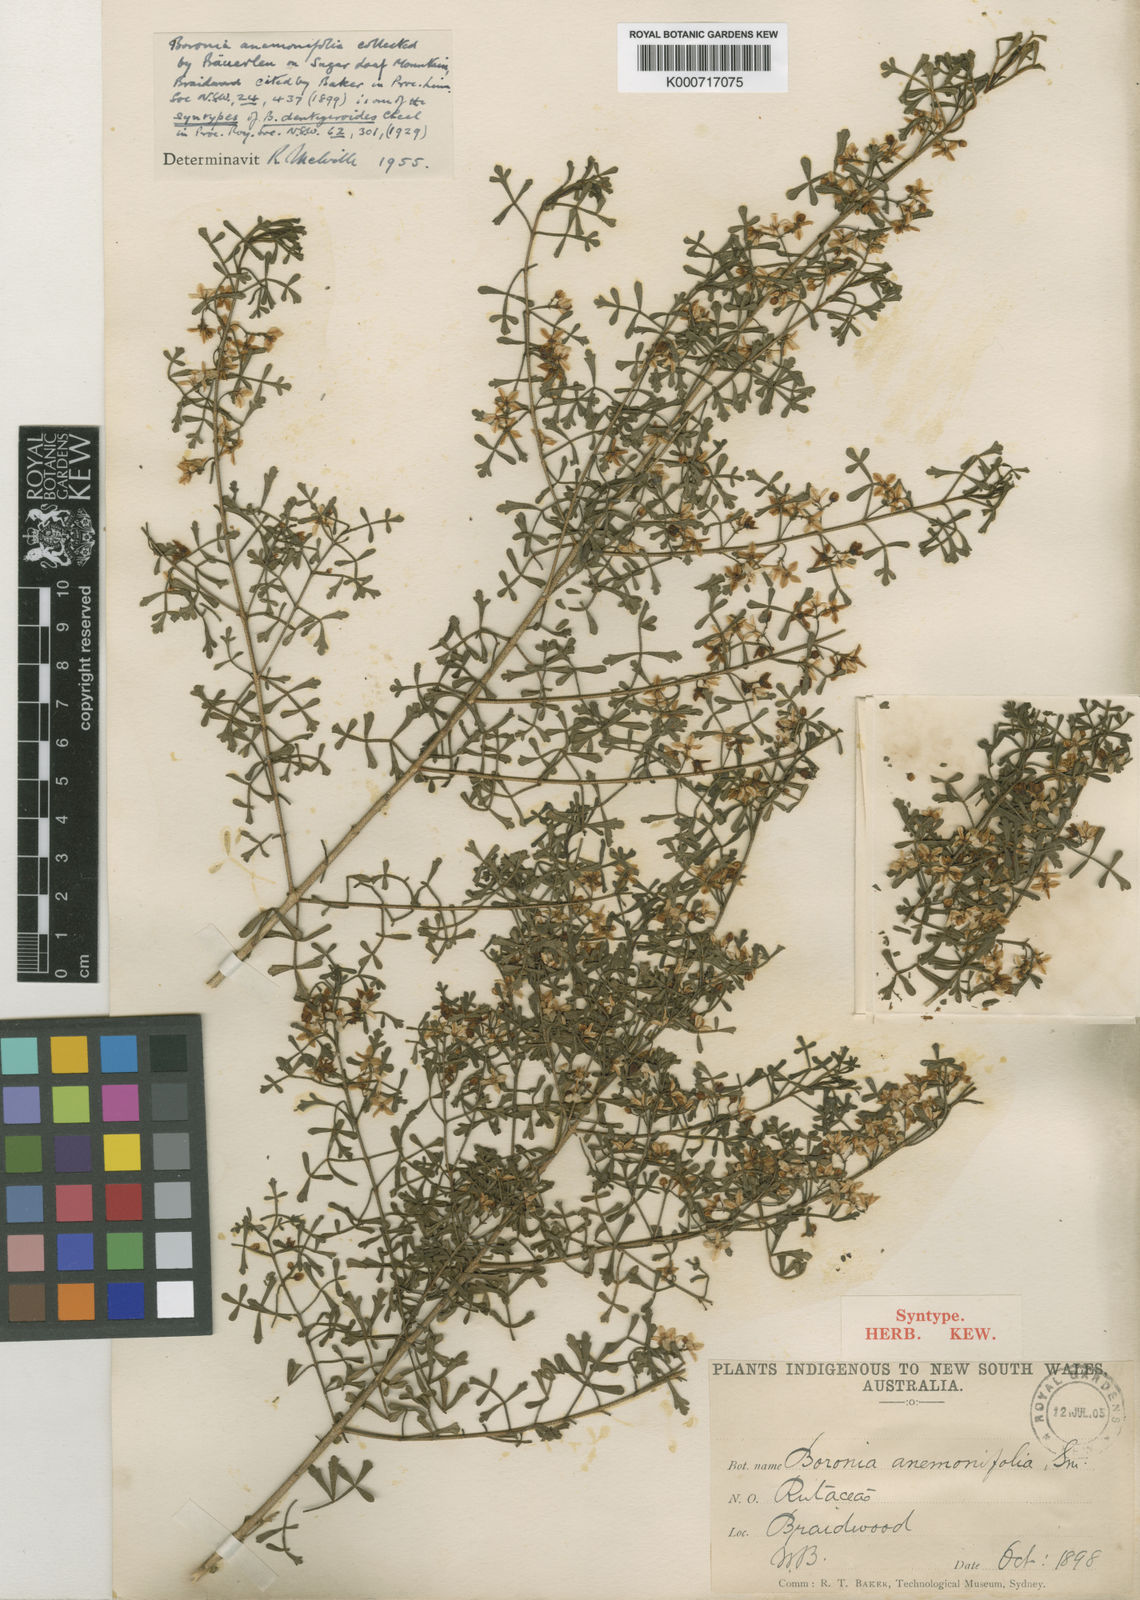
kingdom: Plantae
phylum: Tracheophyta
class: Magnoliopsida
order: Sapindales
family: Rutaceae
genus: Boronia
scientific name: Boronia
